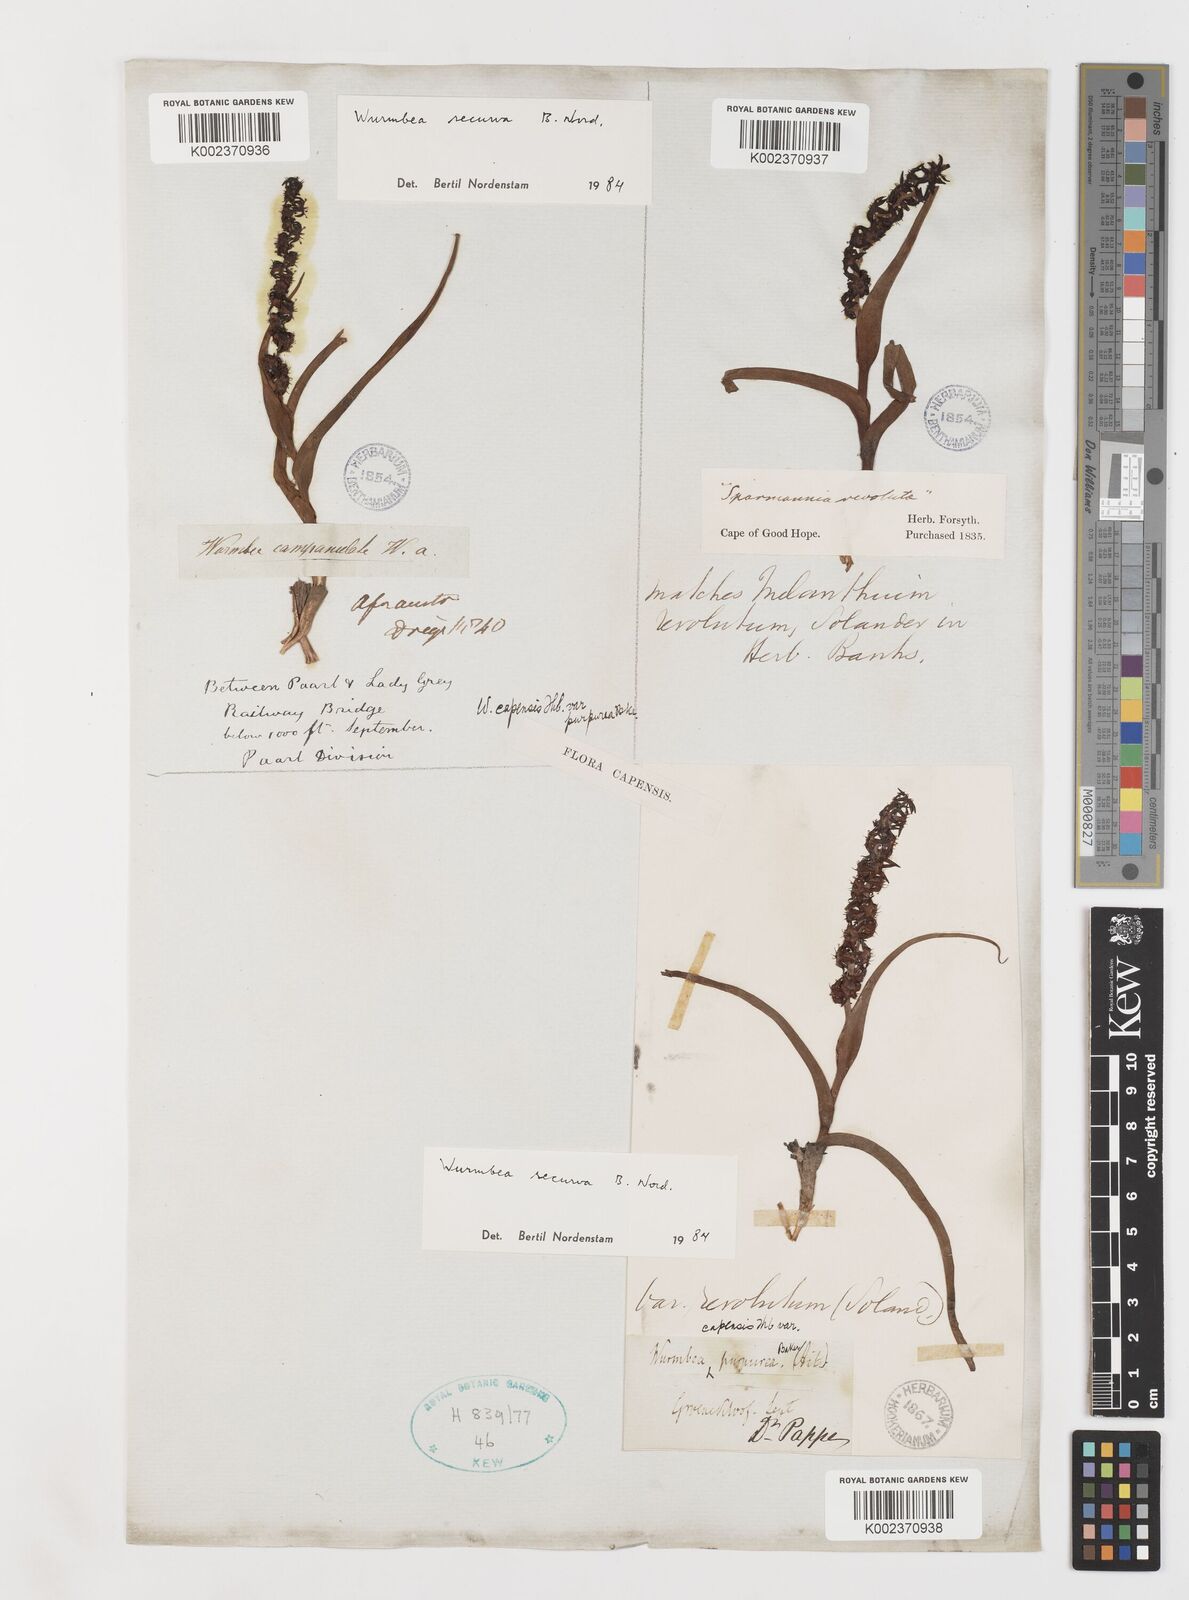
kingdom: Plantae
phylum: Tracheophyta
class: Liliopsida
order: Liliales
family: Colchicaceae
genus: Wurmbea
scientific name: Wurmbea recurva
